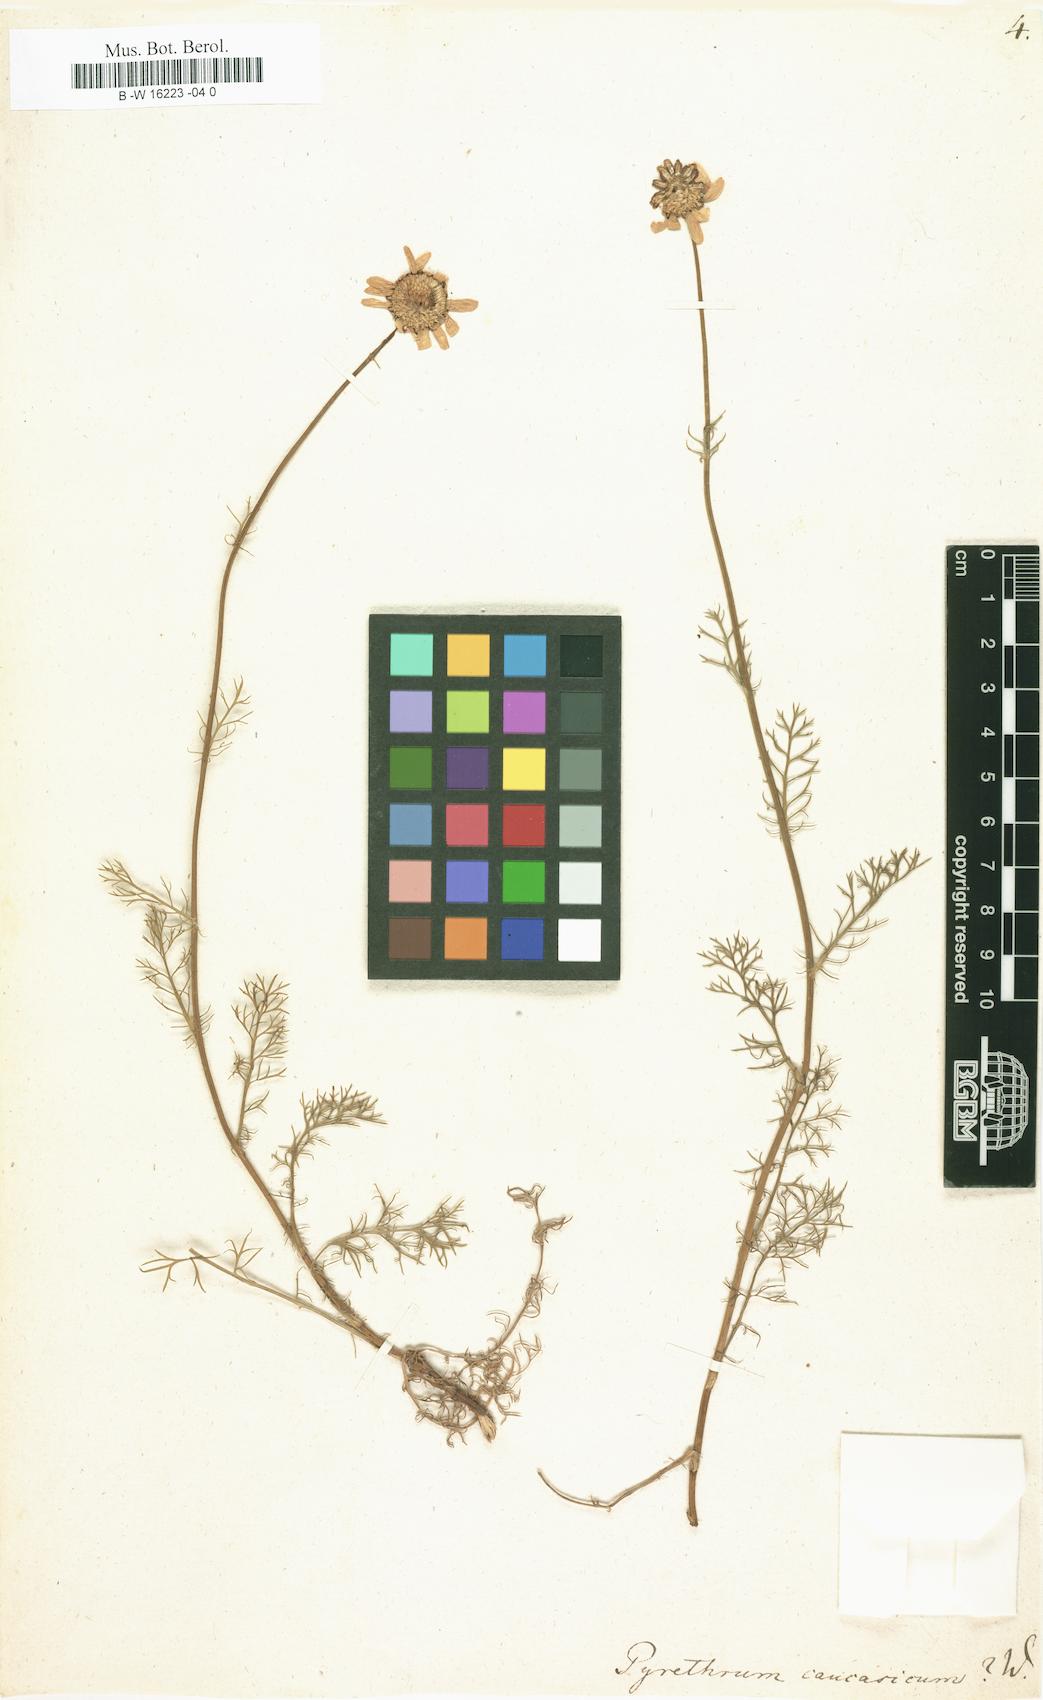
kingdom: Plantae
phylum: Tracheophyta
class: Magnoliopsida
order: Asterales
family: Asteraceae
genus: Tripleurospermum
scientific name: Tripleurospermum caucasicum
